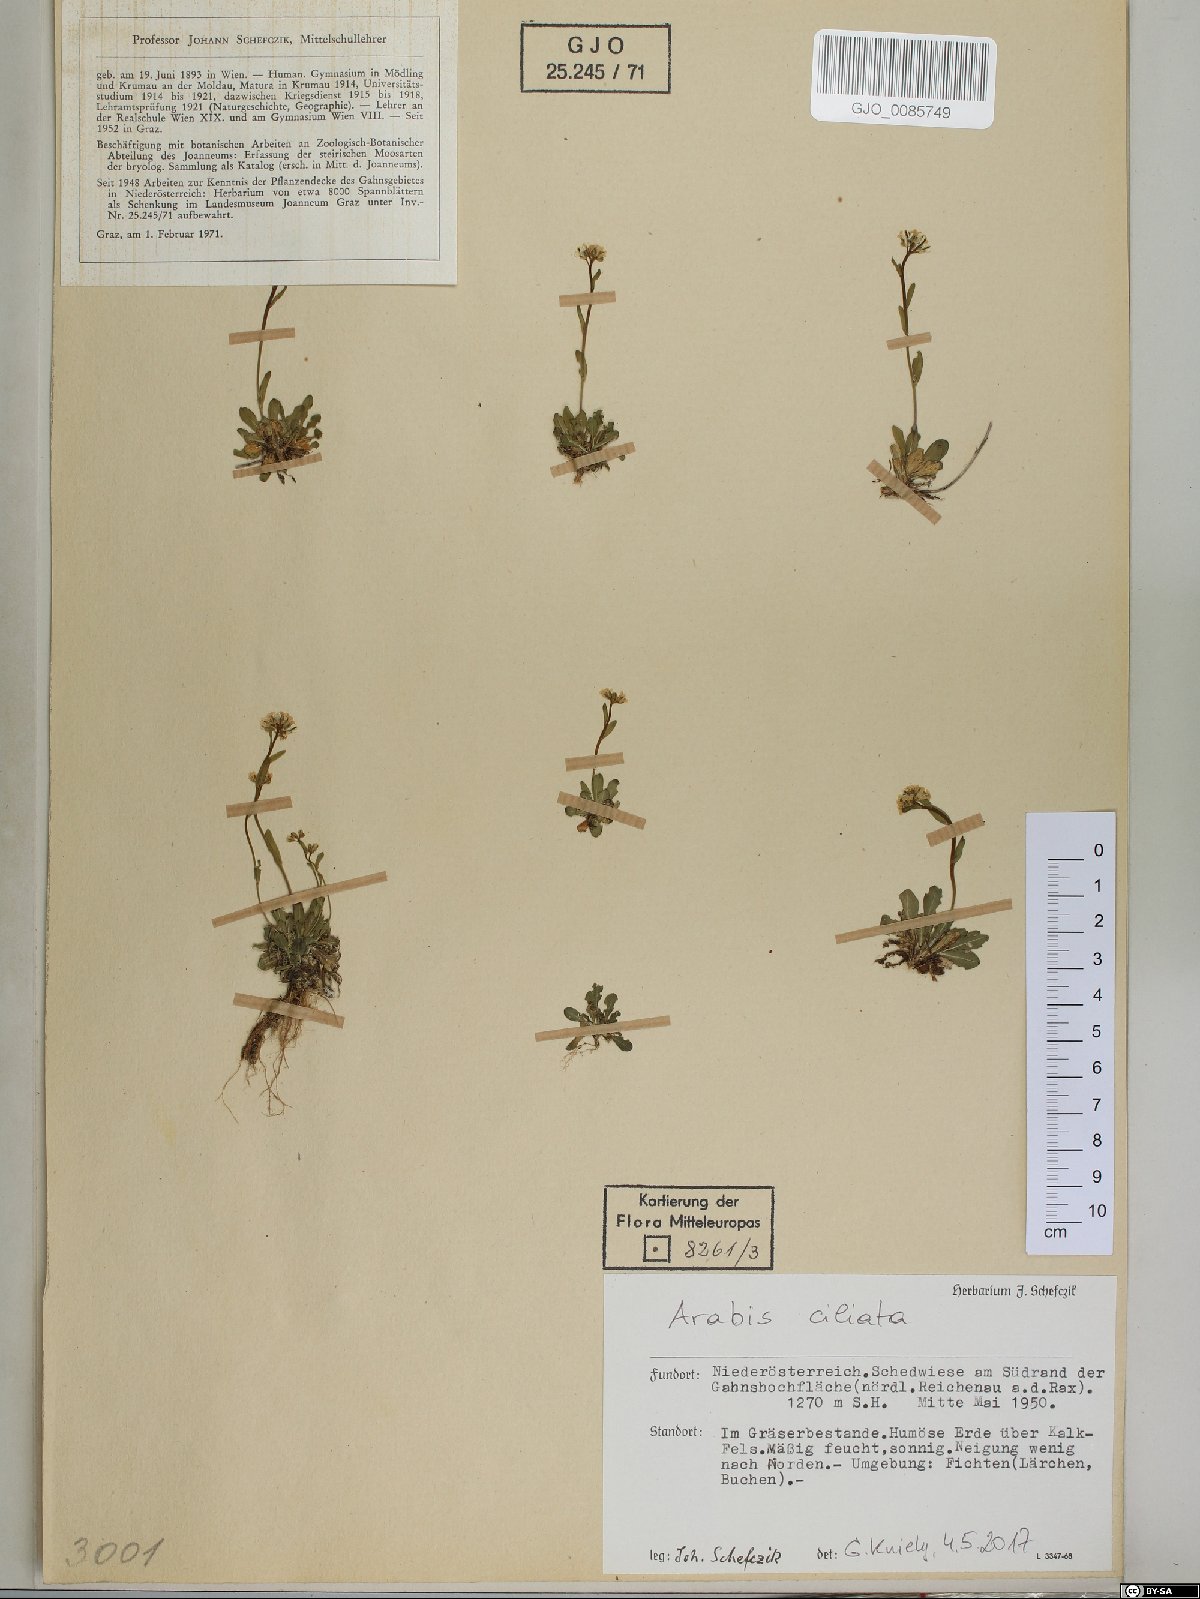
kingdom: Plantae
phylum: Tracheophyta
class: Magnoliopsida
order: Brassicales
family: Brassicaceae
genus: Arabis
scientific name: Arabis ciliata
